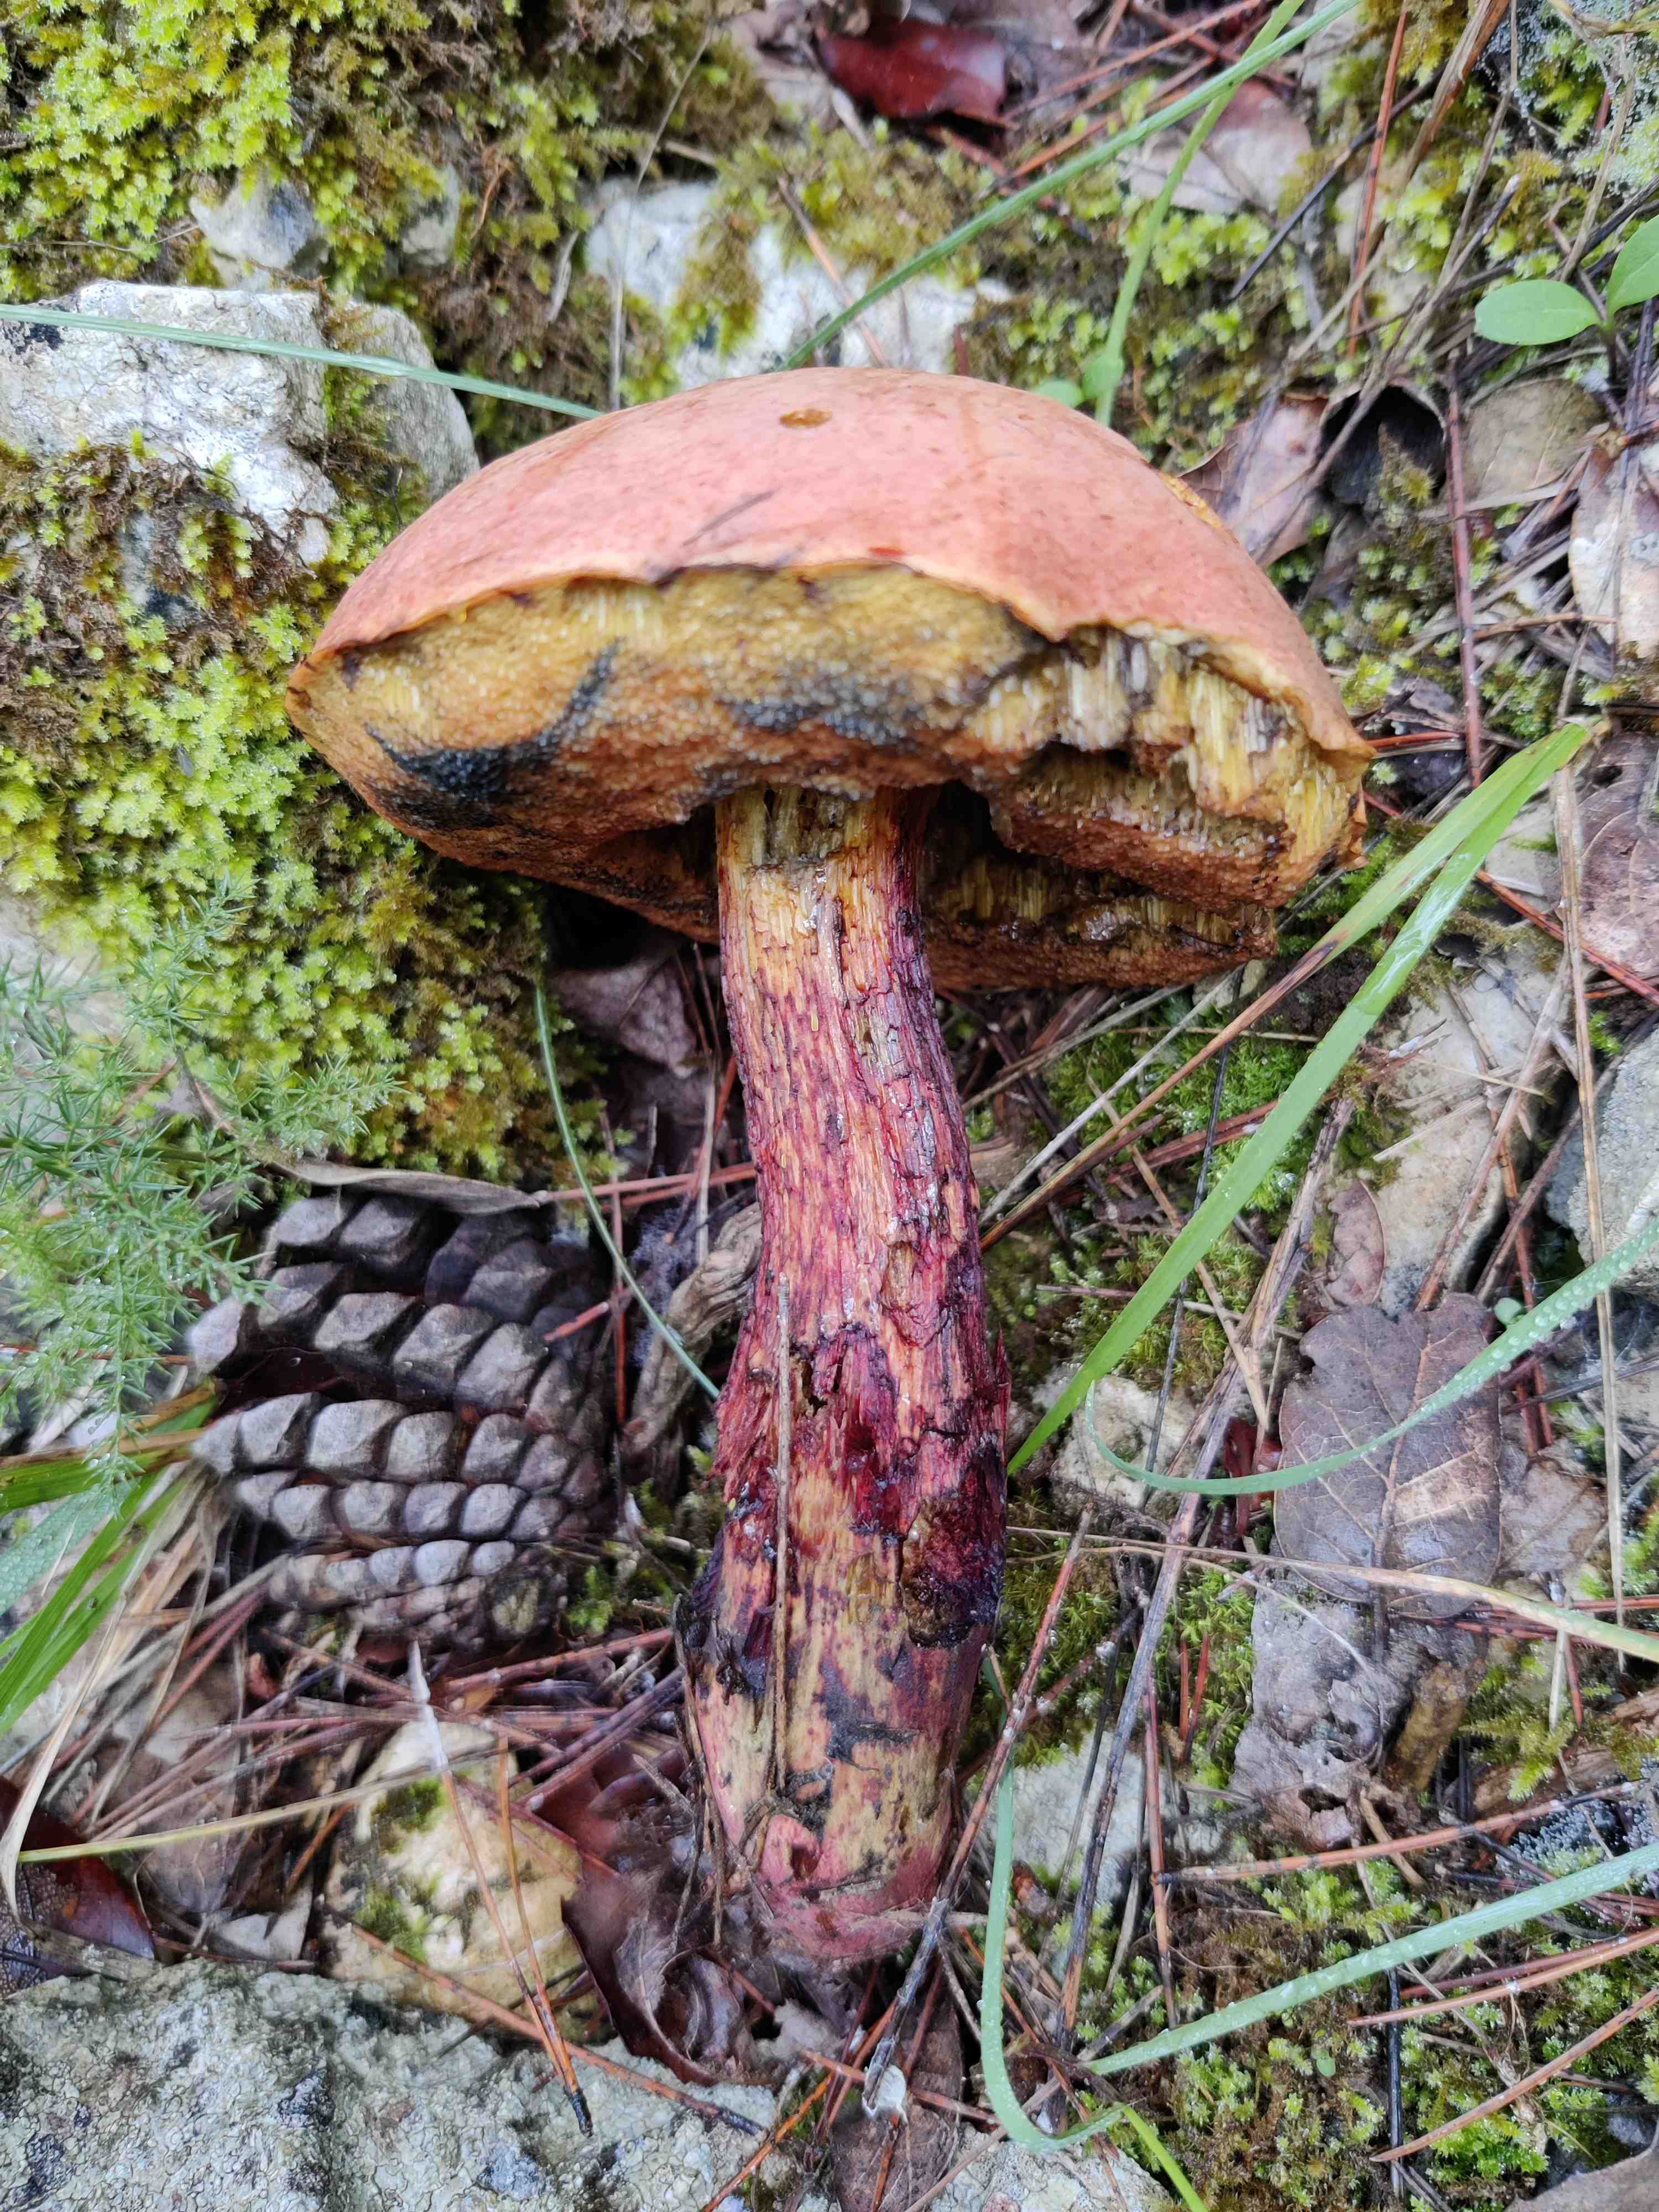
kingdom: Fungi
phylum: Basidiomycota
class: Agaricomycetes
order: Boletales
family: Boletaceae
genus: Suillellus
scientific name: Suillellus luridus
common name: netstokket indigorørhat
